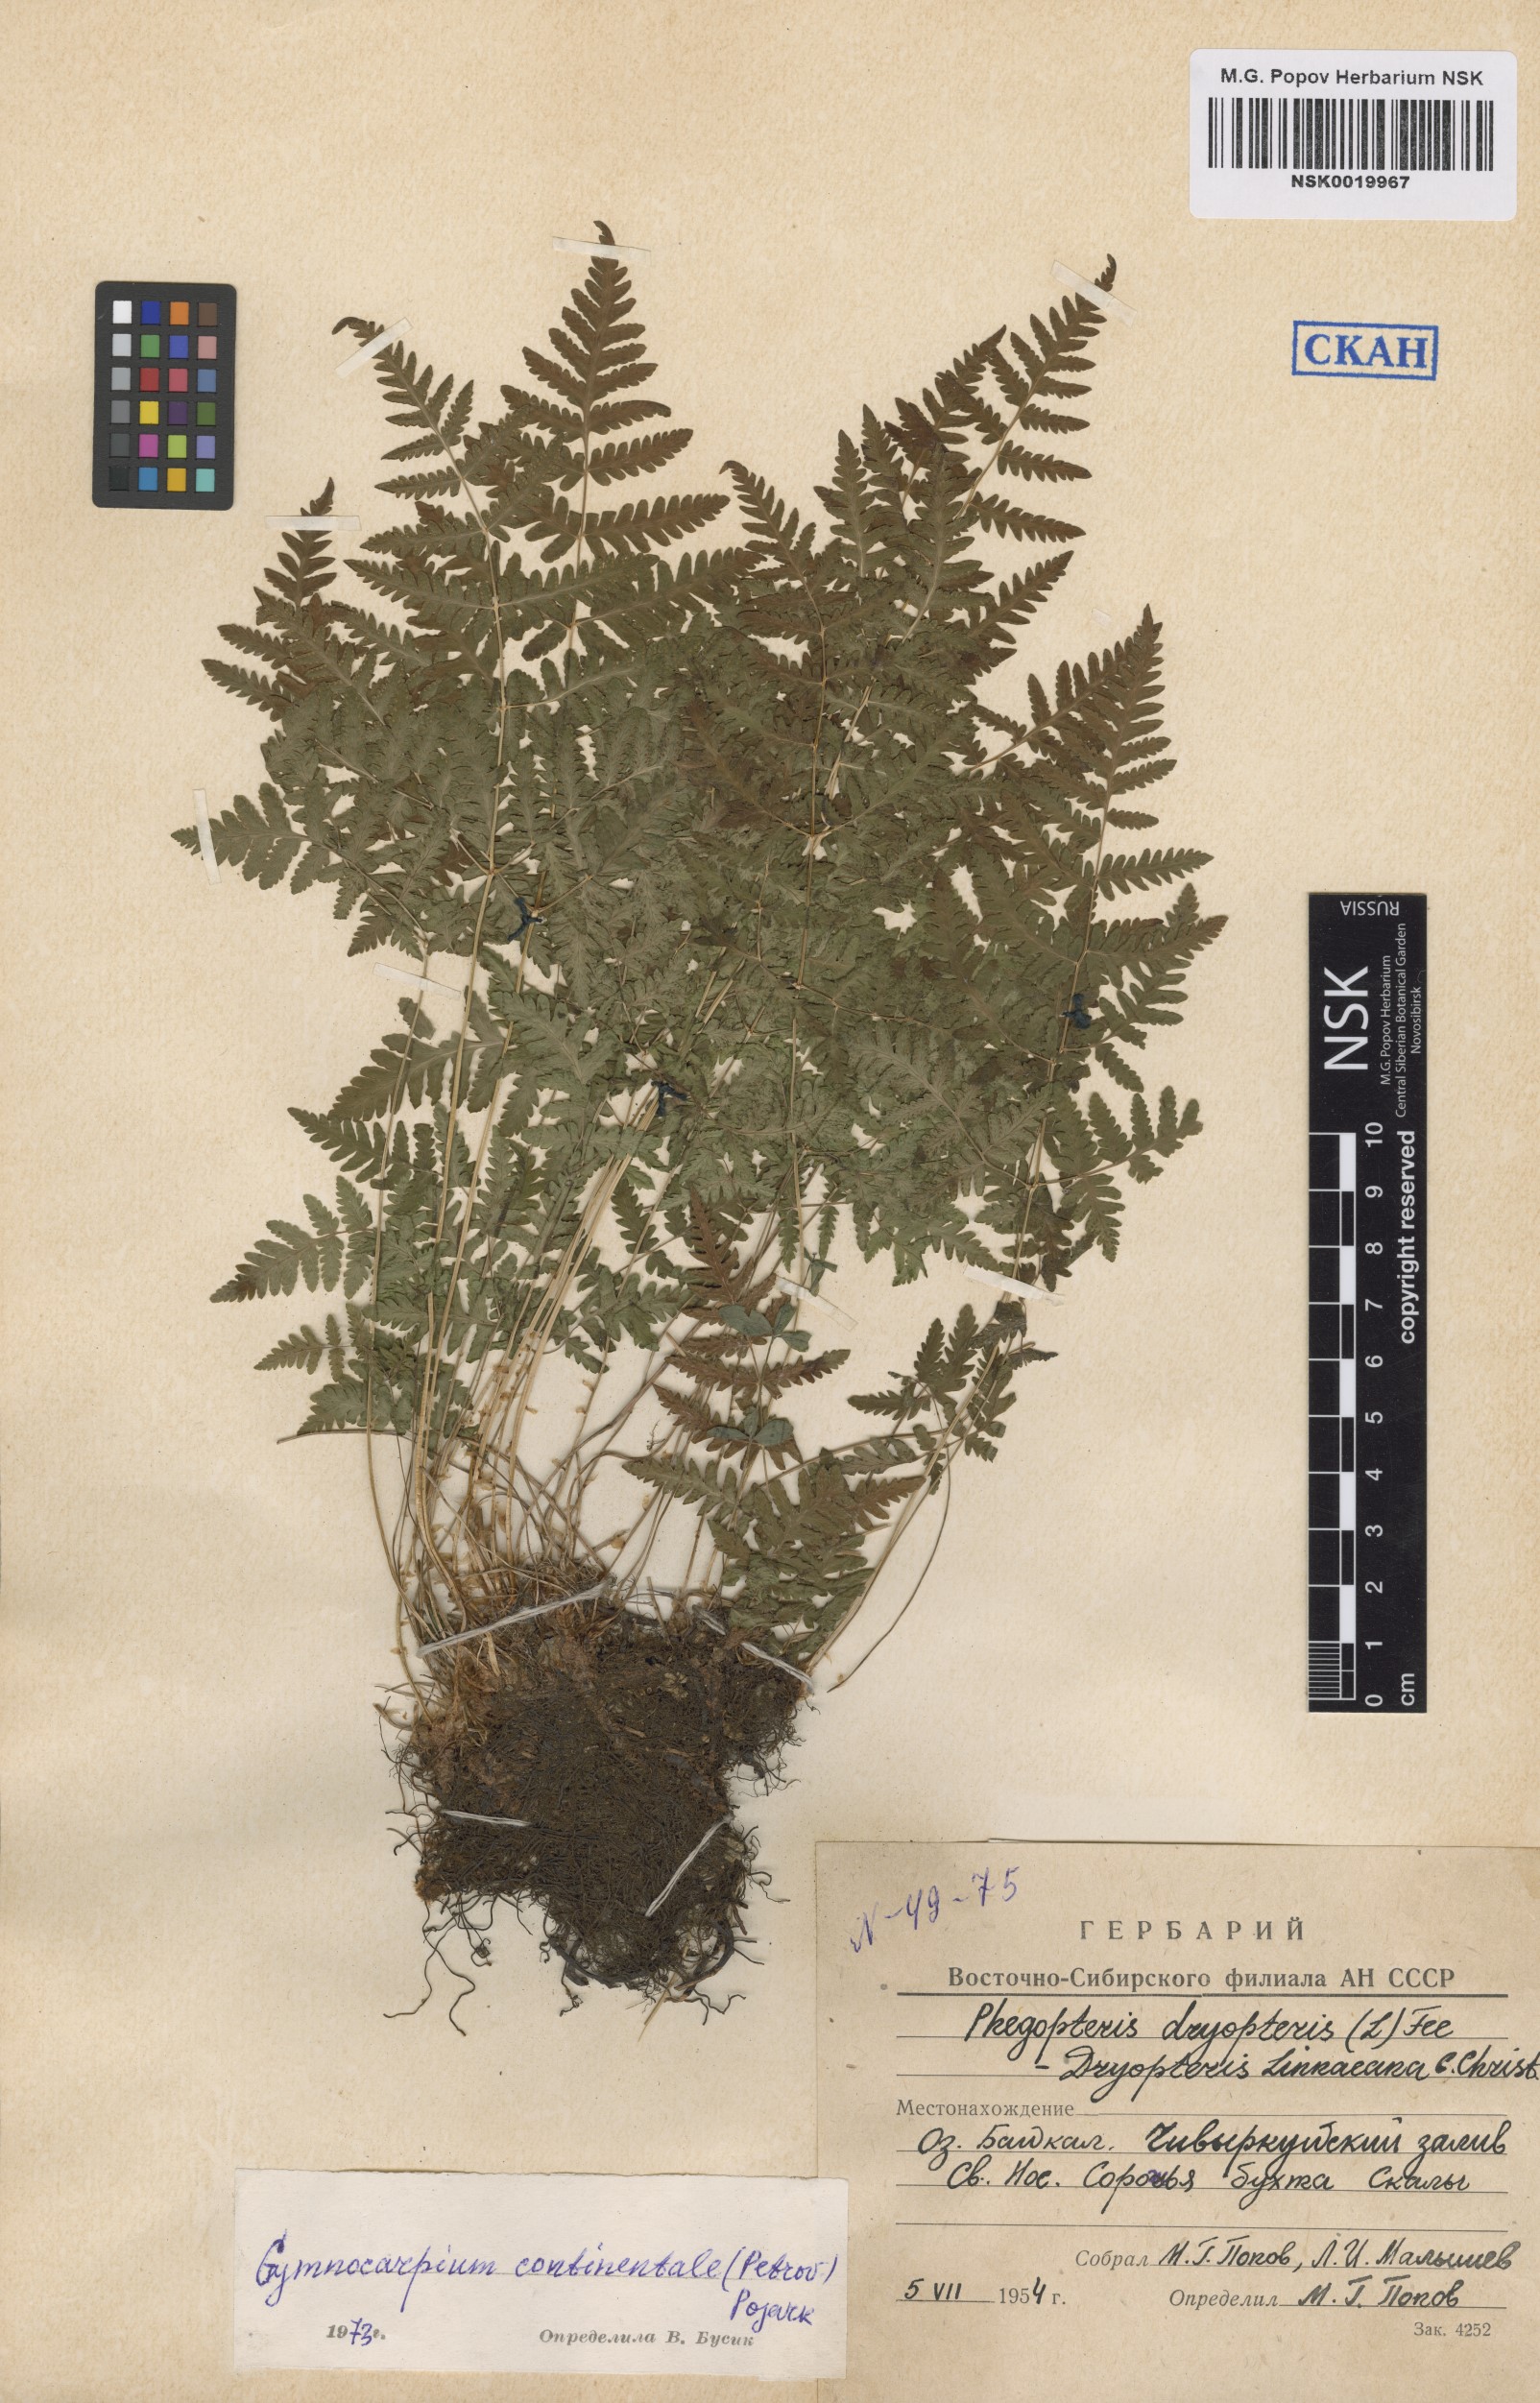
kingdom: Plantae
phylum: Tracheophyta
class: Polypodiopsida
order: Polypodiales
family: Cystopteridaceae
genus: Gymnocarpium
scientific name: Gymnocarpium continentale
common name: Asian oak fern
